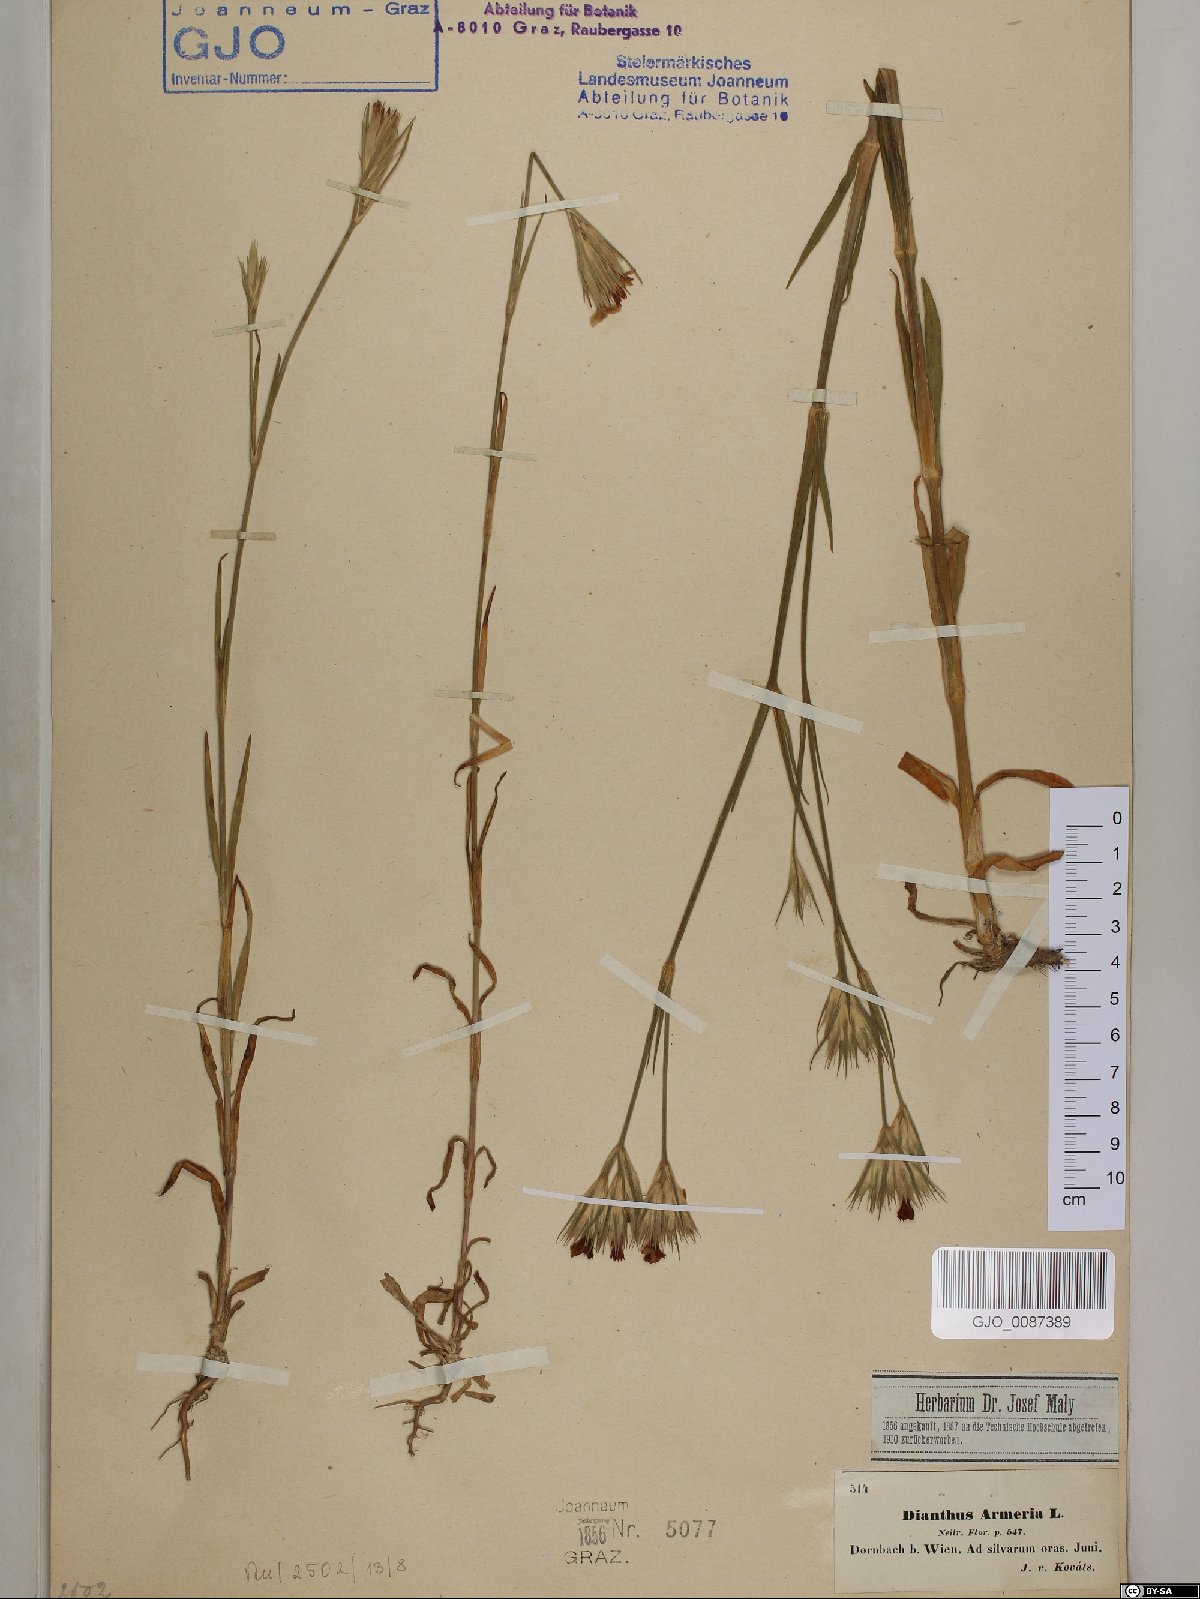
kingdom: Plantae
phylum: Tracheophyta
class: Magnoliopsida
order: Caryophyllales
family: Caryophyllaceae
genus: Dianthus
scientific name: Dianthus armeria
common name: Deptford pink
